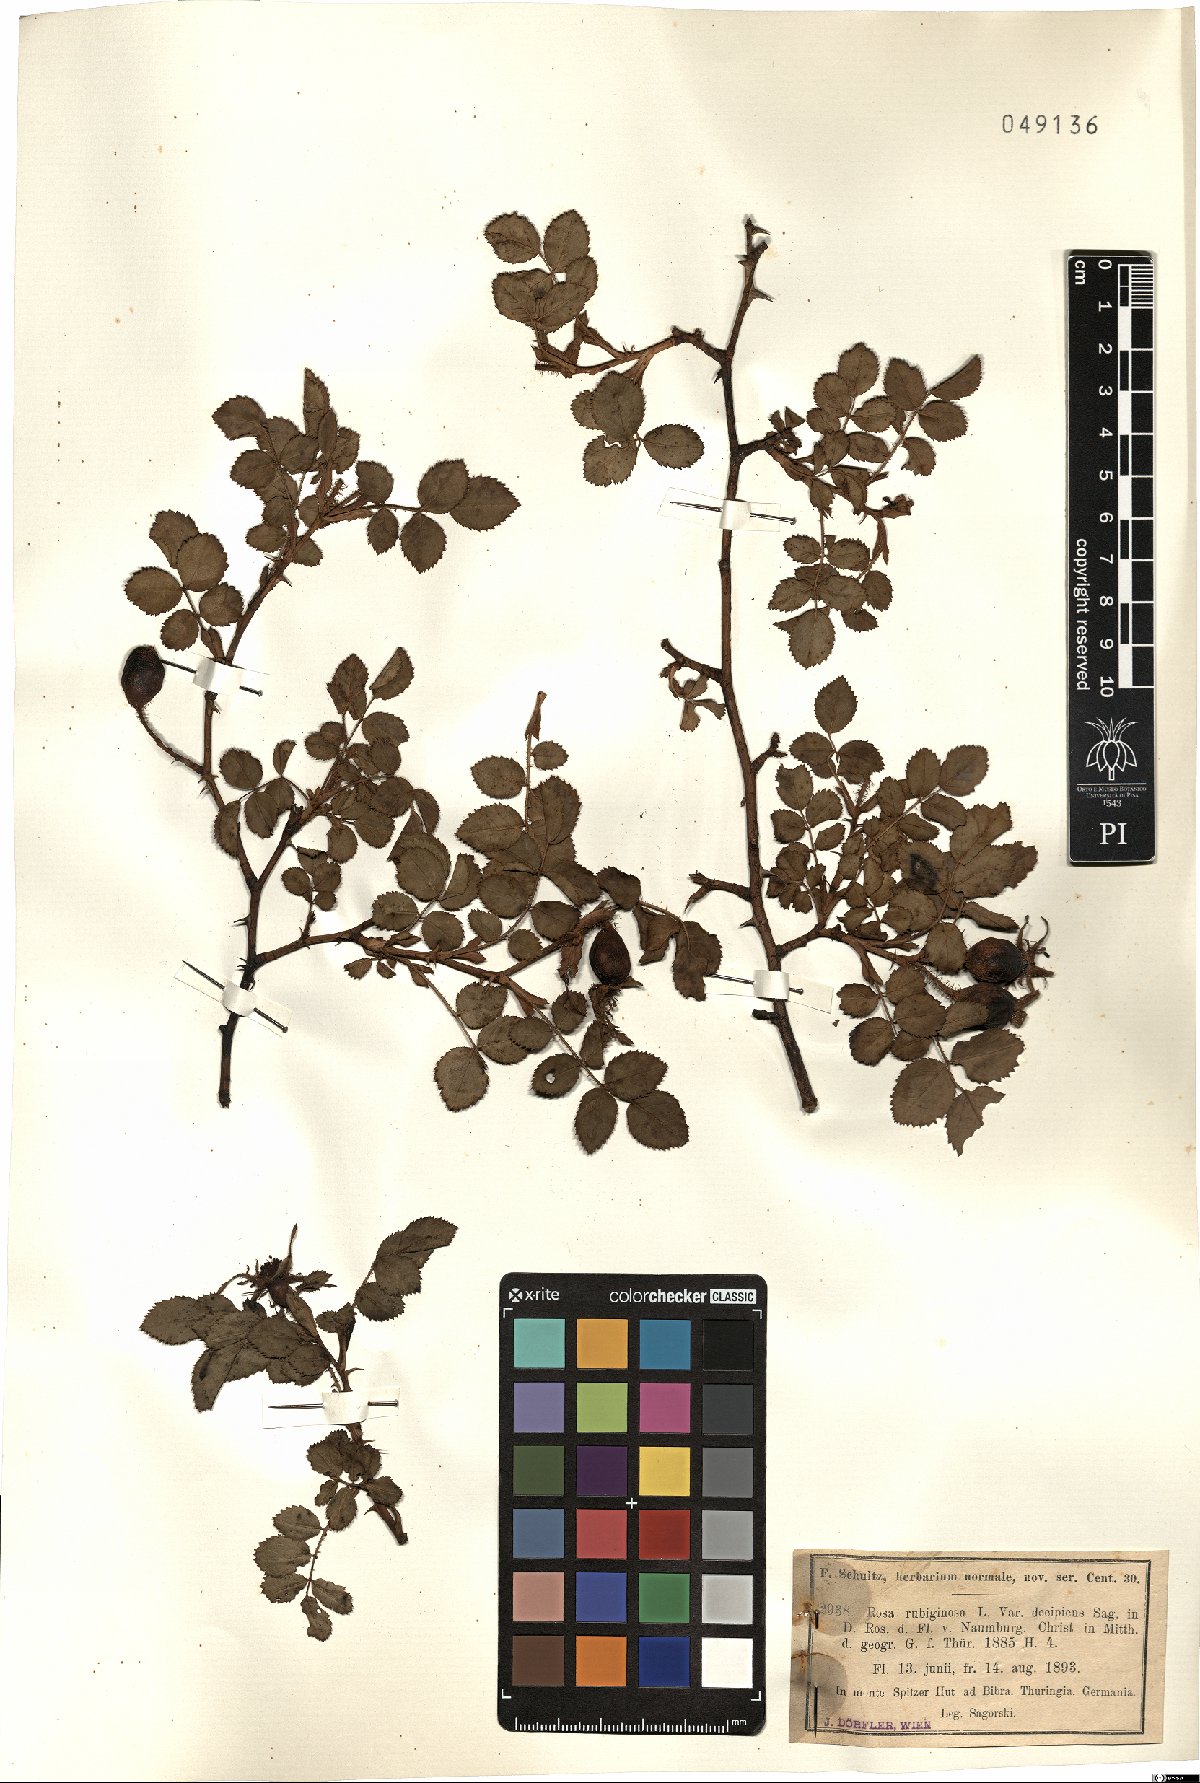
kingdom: Plantae
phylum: Tracheophyta
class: Magnoliopsida
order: Rosales
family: Rosaceae
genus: Rosa
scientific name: Rosa rubiginosa
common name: Sweet-briar
